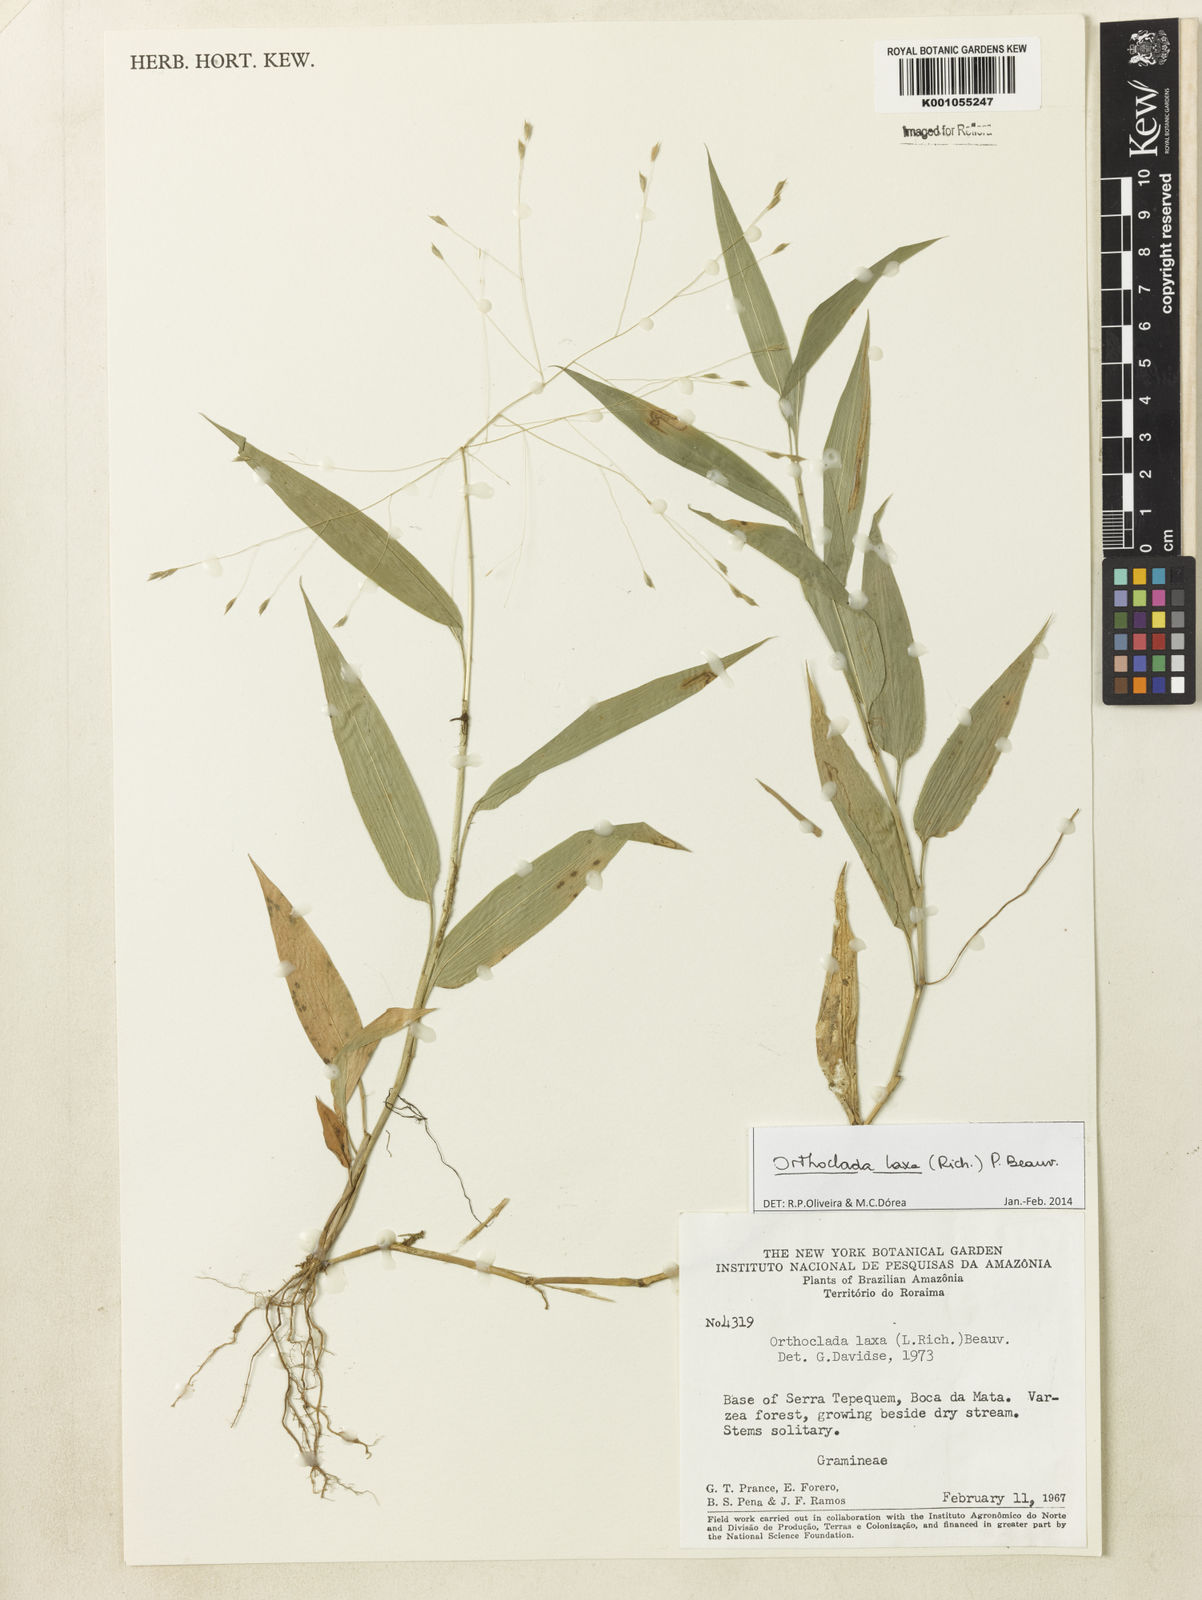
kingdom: Plantae
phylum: Tracheophyta
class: Liliopsida
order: Poales
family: Poaceae
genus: Orthoclada
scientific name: Orthoclada laxa
